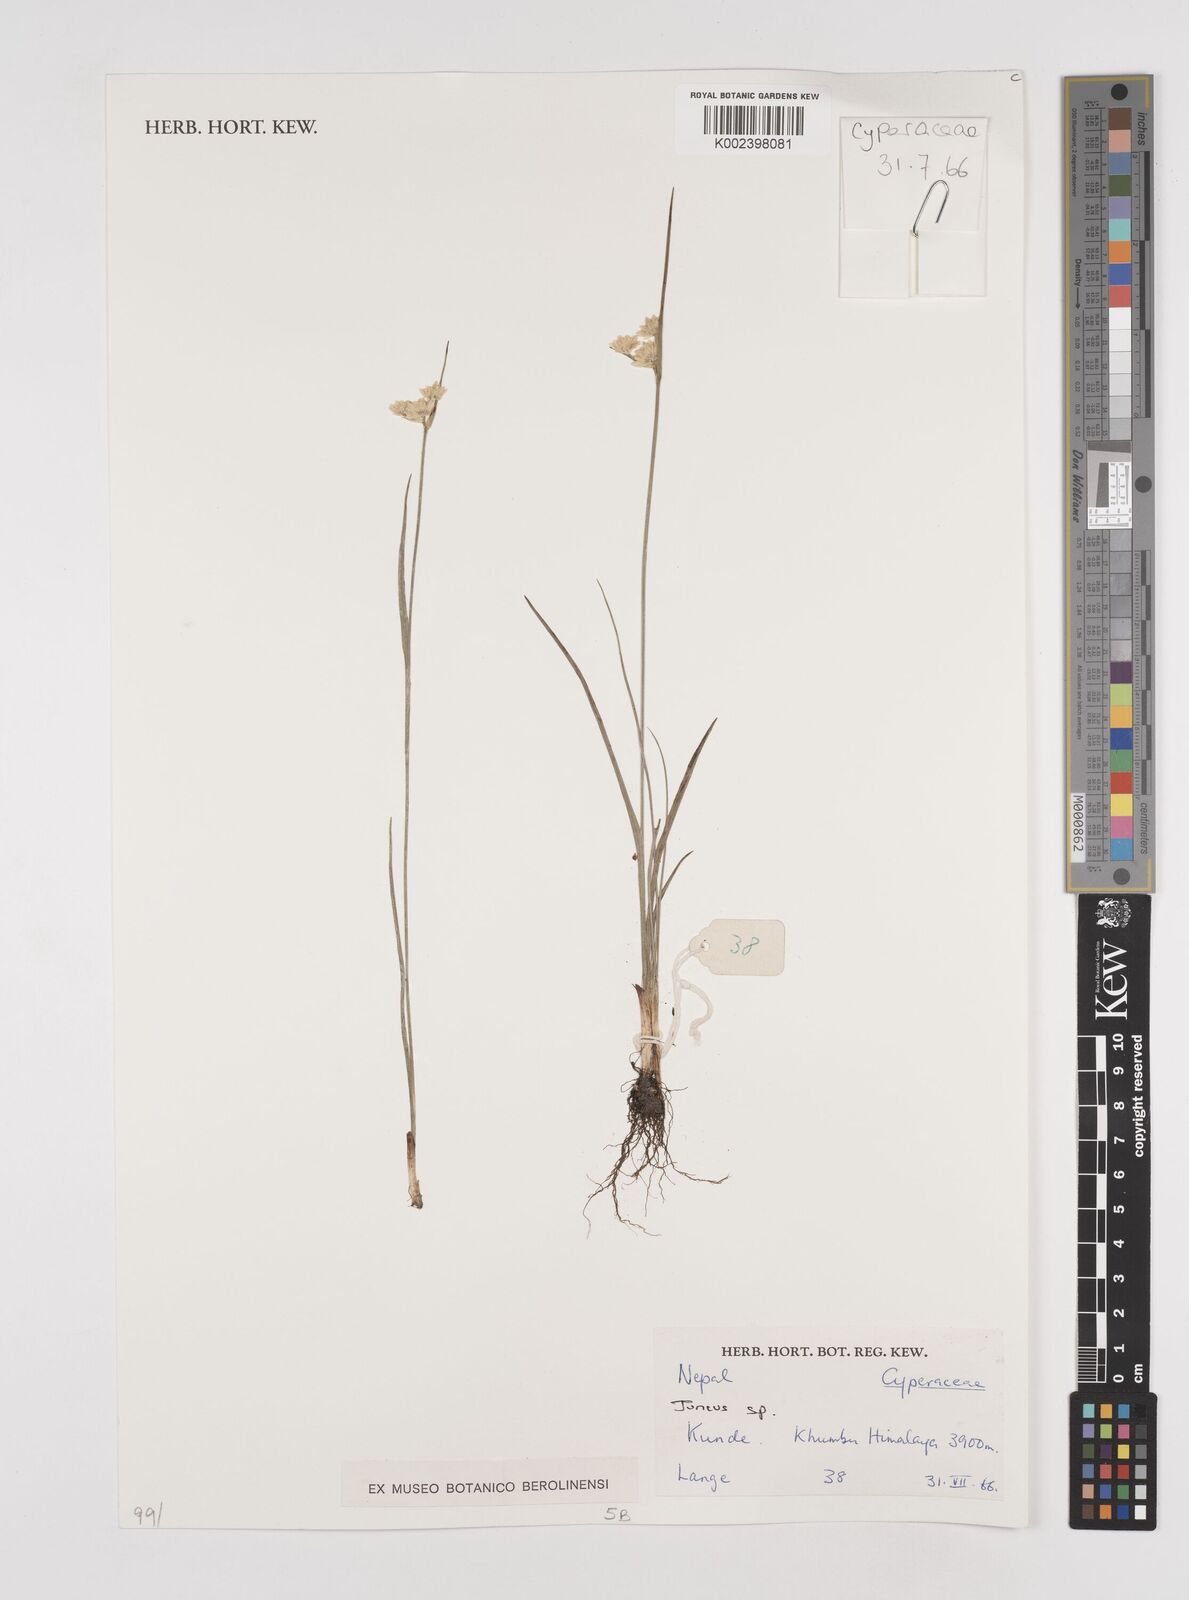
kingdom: Plantae
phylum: Tracheophyta
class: Liliopsida
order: Poales
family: Juncaceae
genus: Juncus
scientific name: Juncus
